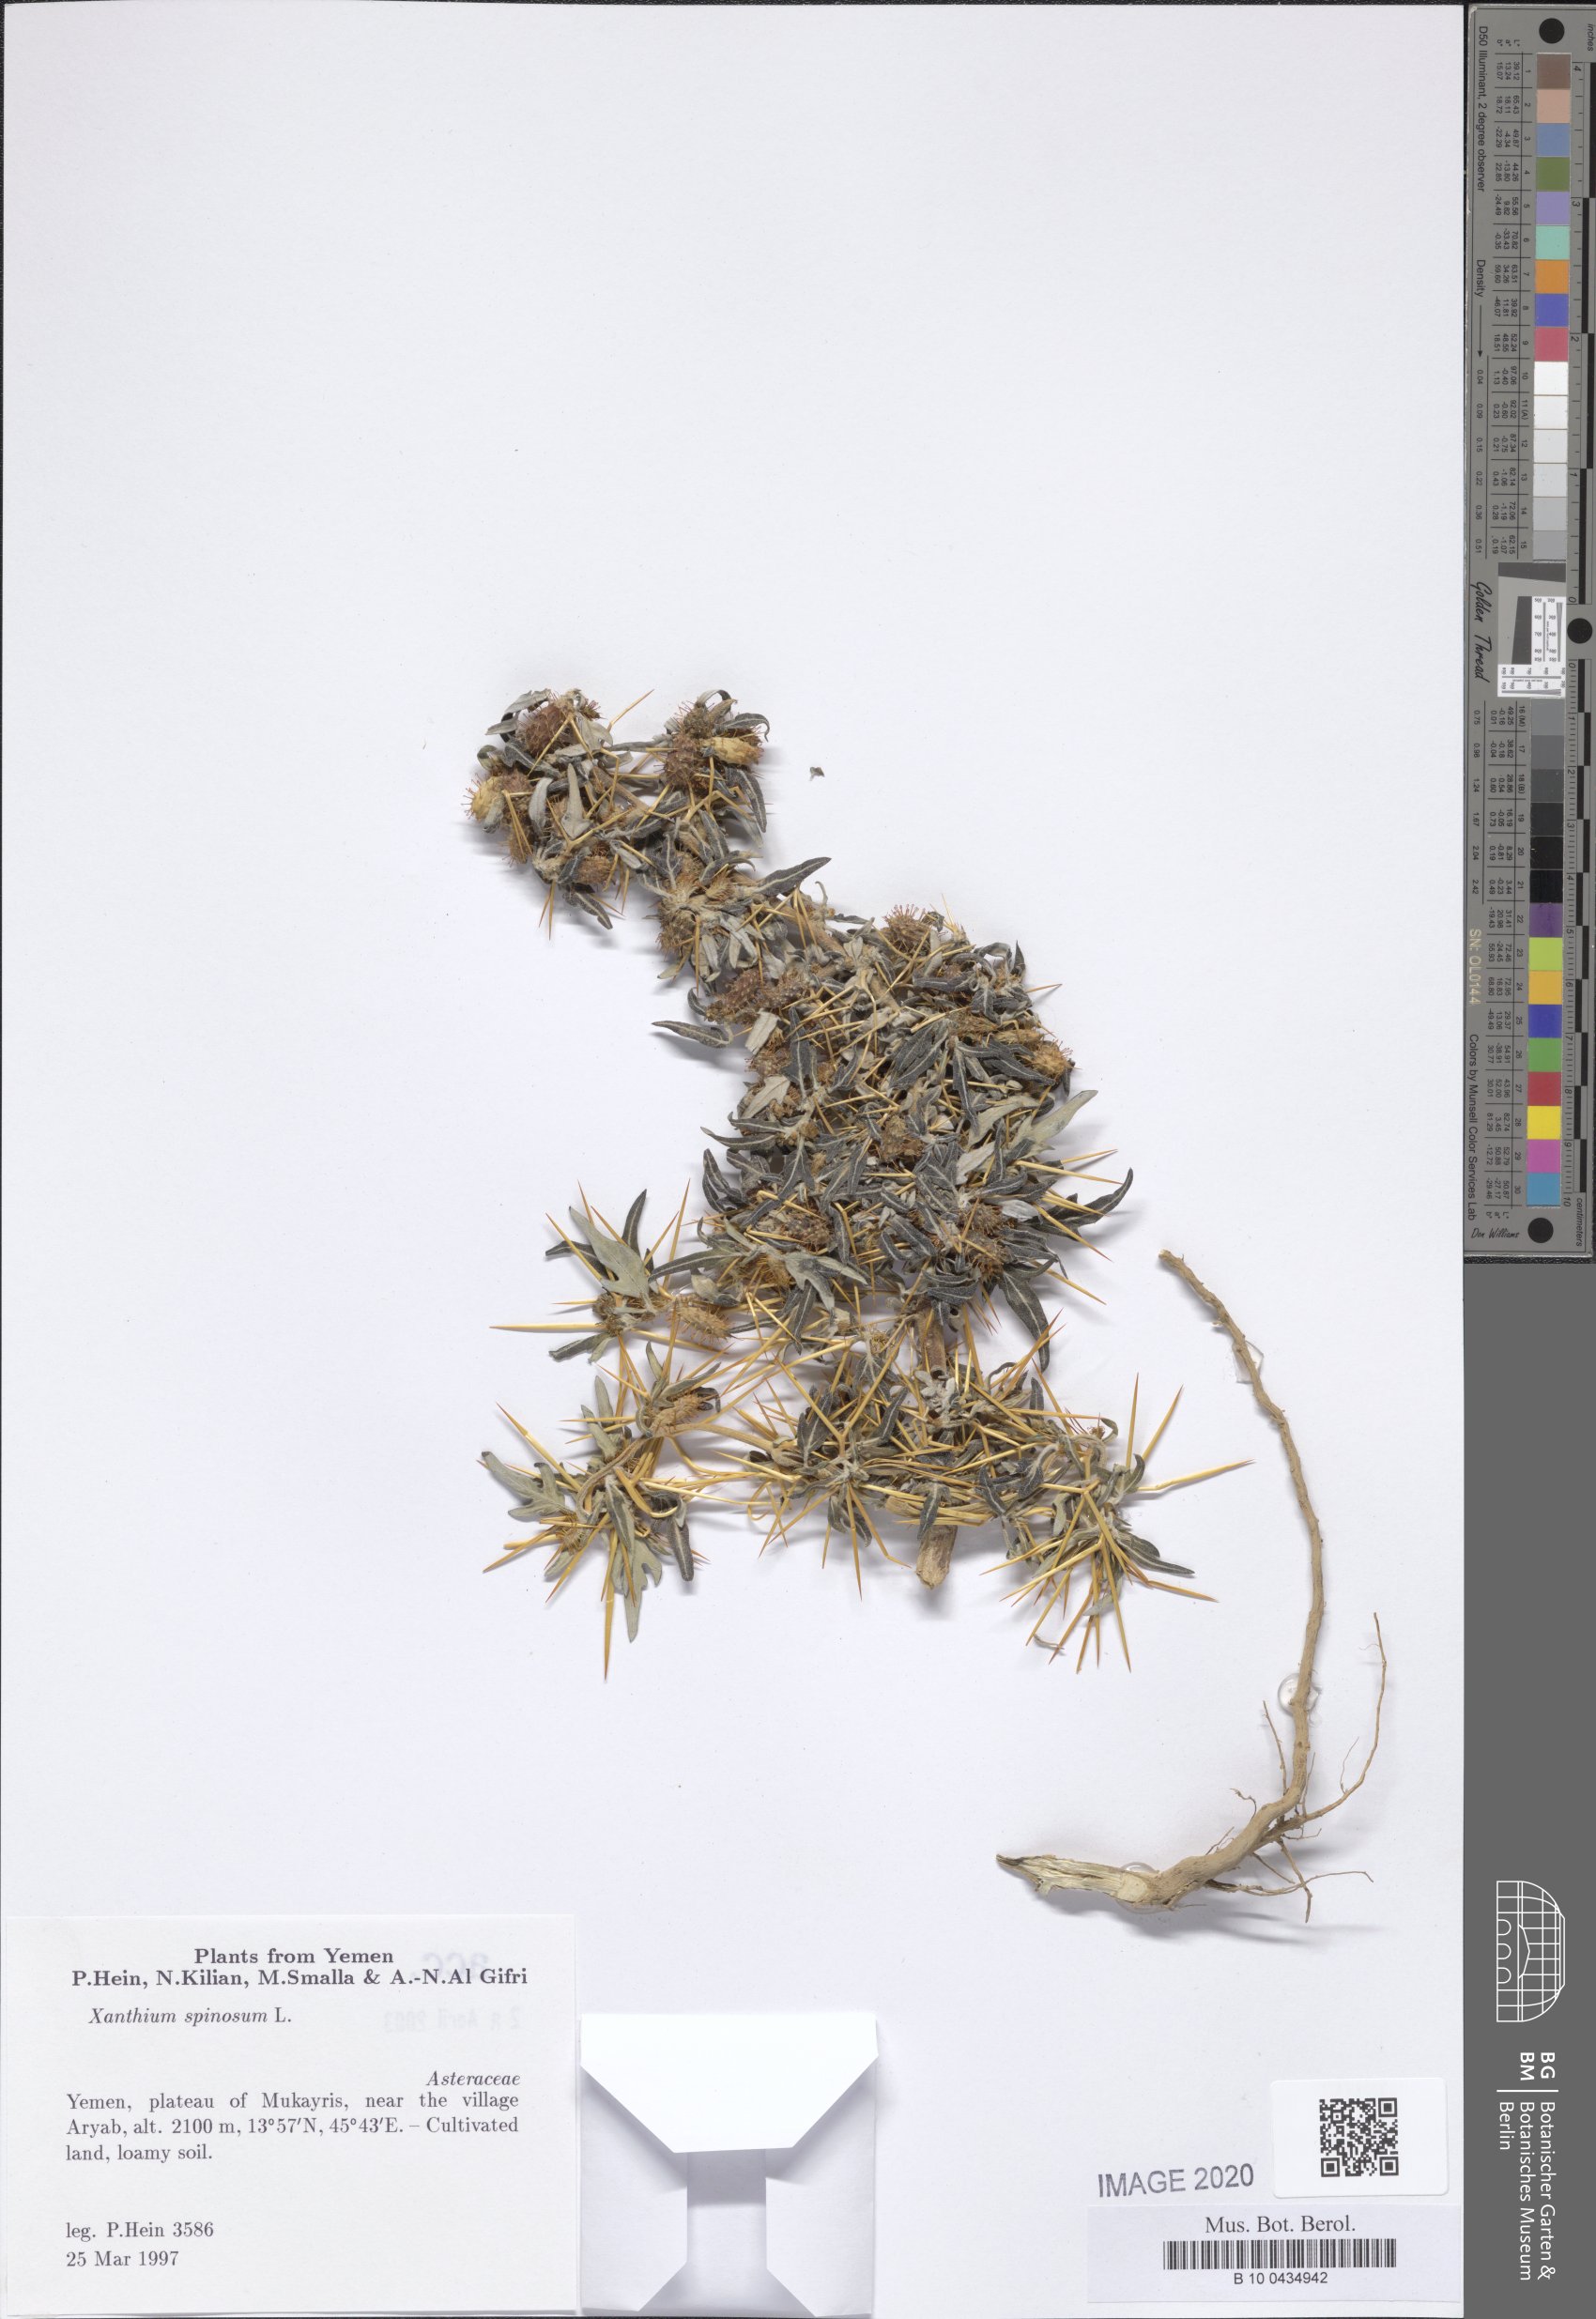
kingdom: Plantae
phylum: Tracheophyta
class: Magnoliopsida
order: Asterales
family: Asteraceae
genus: Xanthium
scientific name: Xanthium spinosum
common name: Spiny cocklebur
